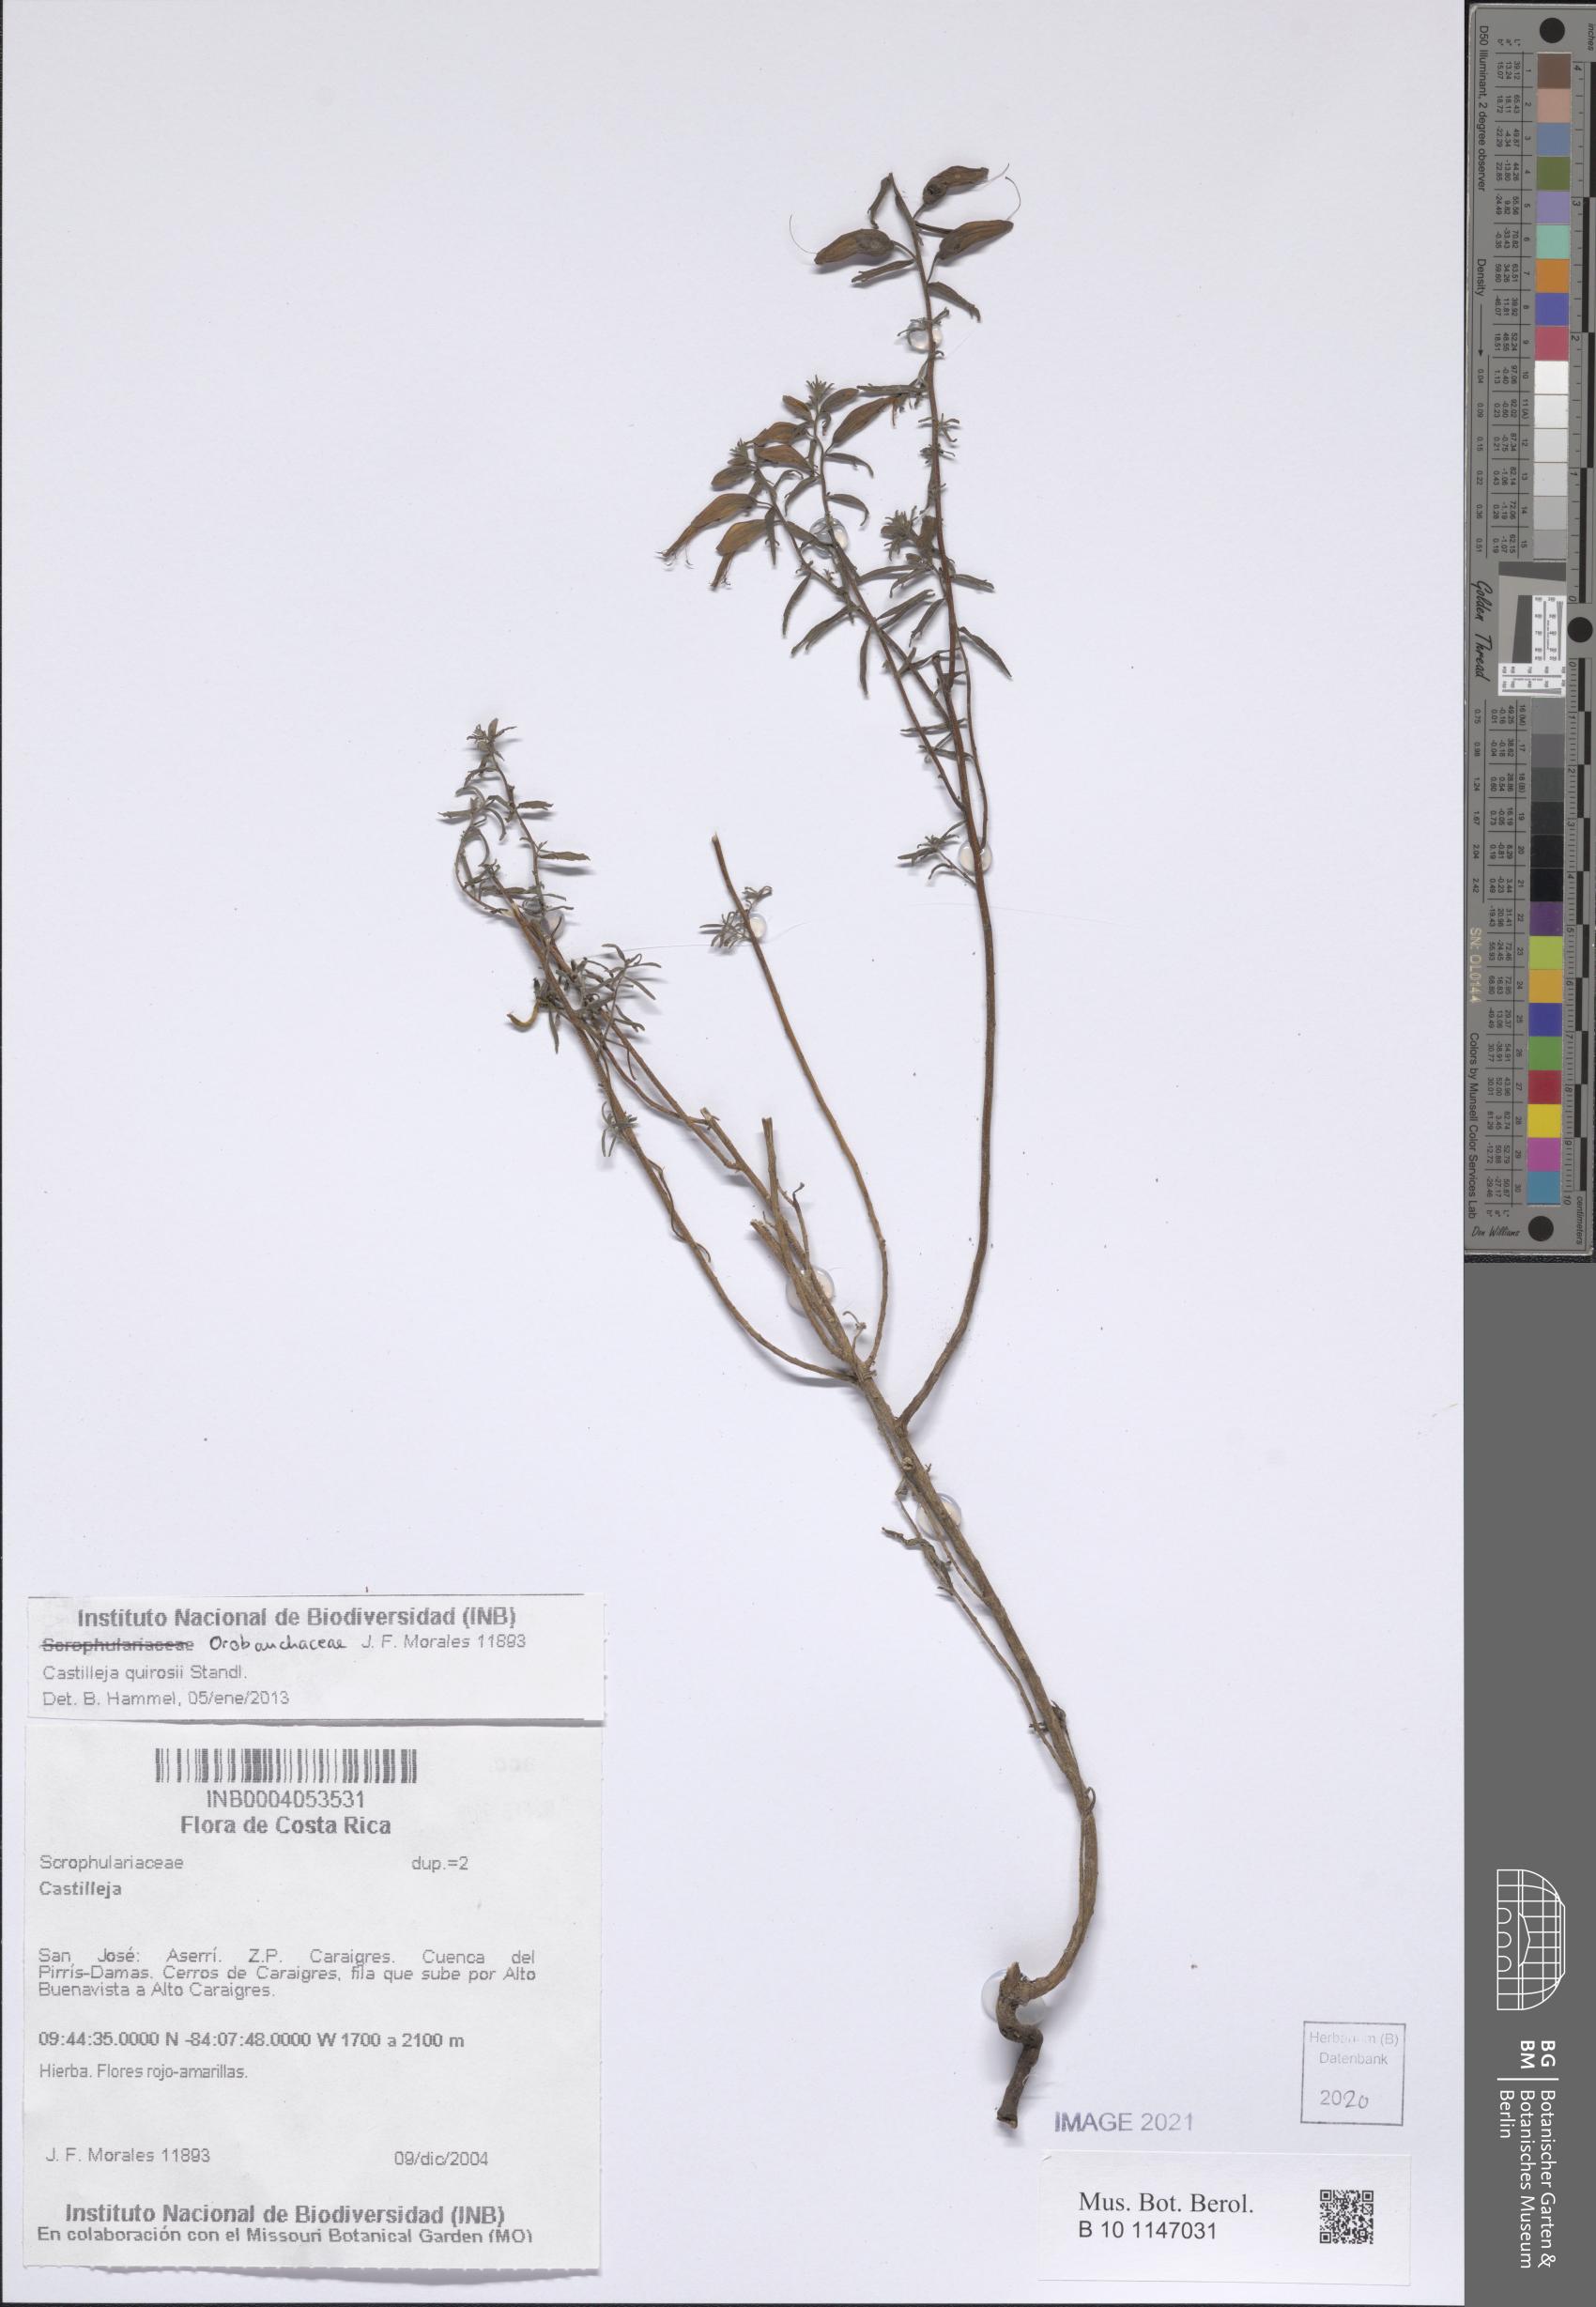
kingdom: Plantae
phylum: Tracheophyta
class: Magnoliopsida
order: Lamiales
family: Orobanchaceae
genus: Castilleja
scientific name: Castilleja quirosii
